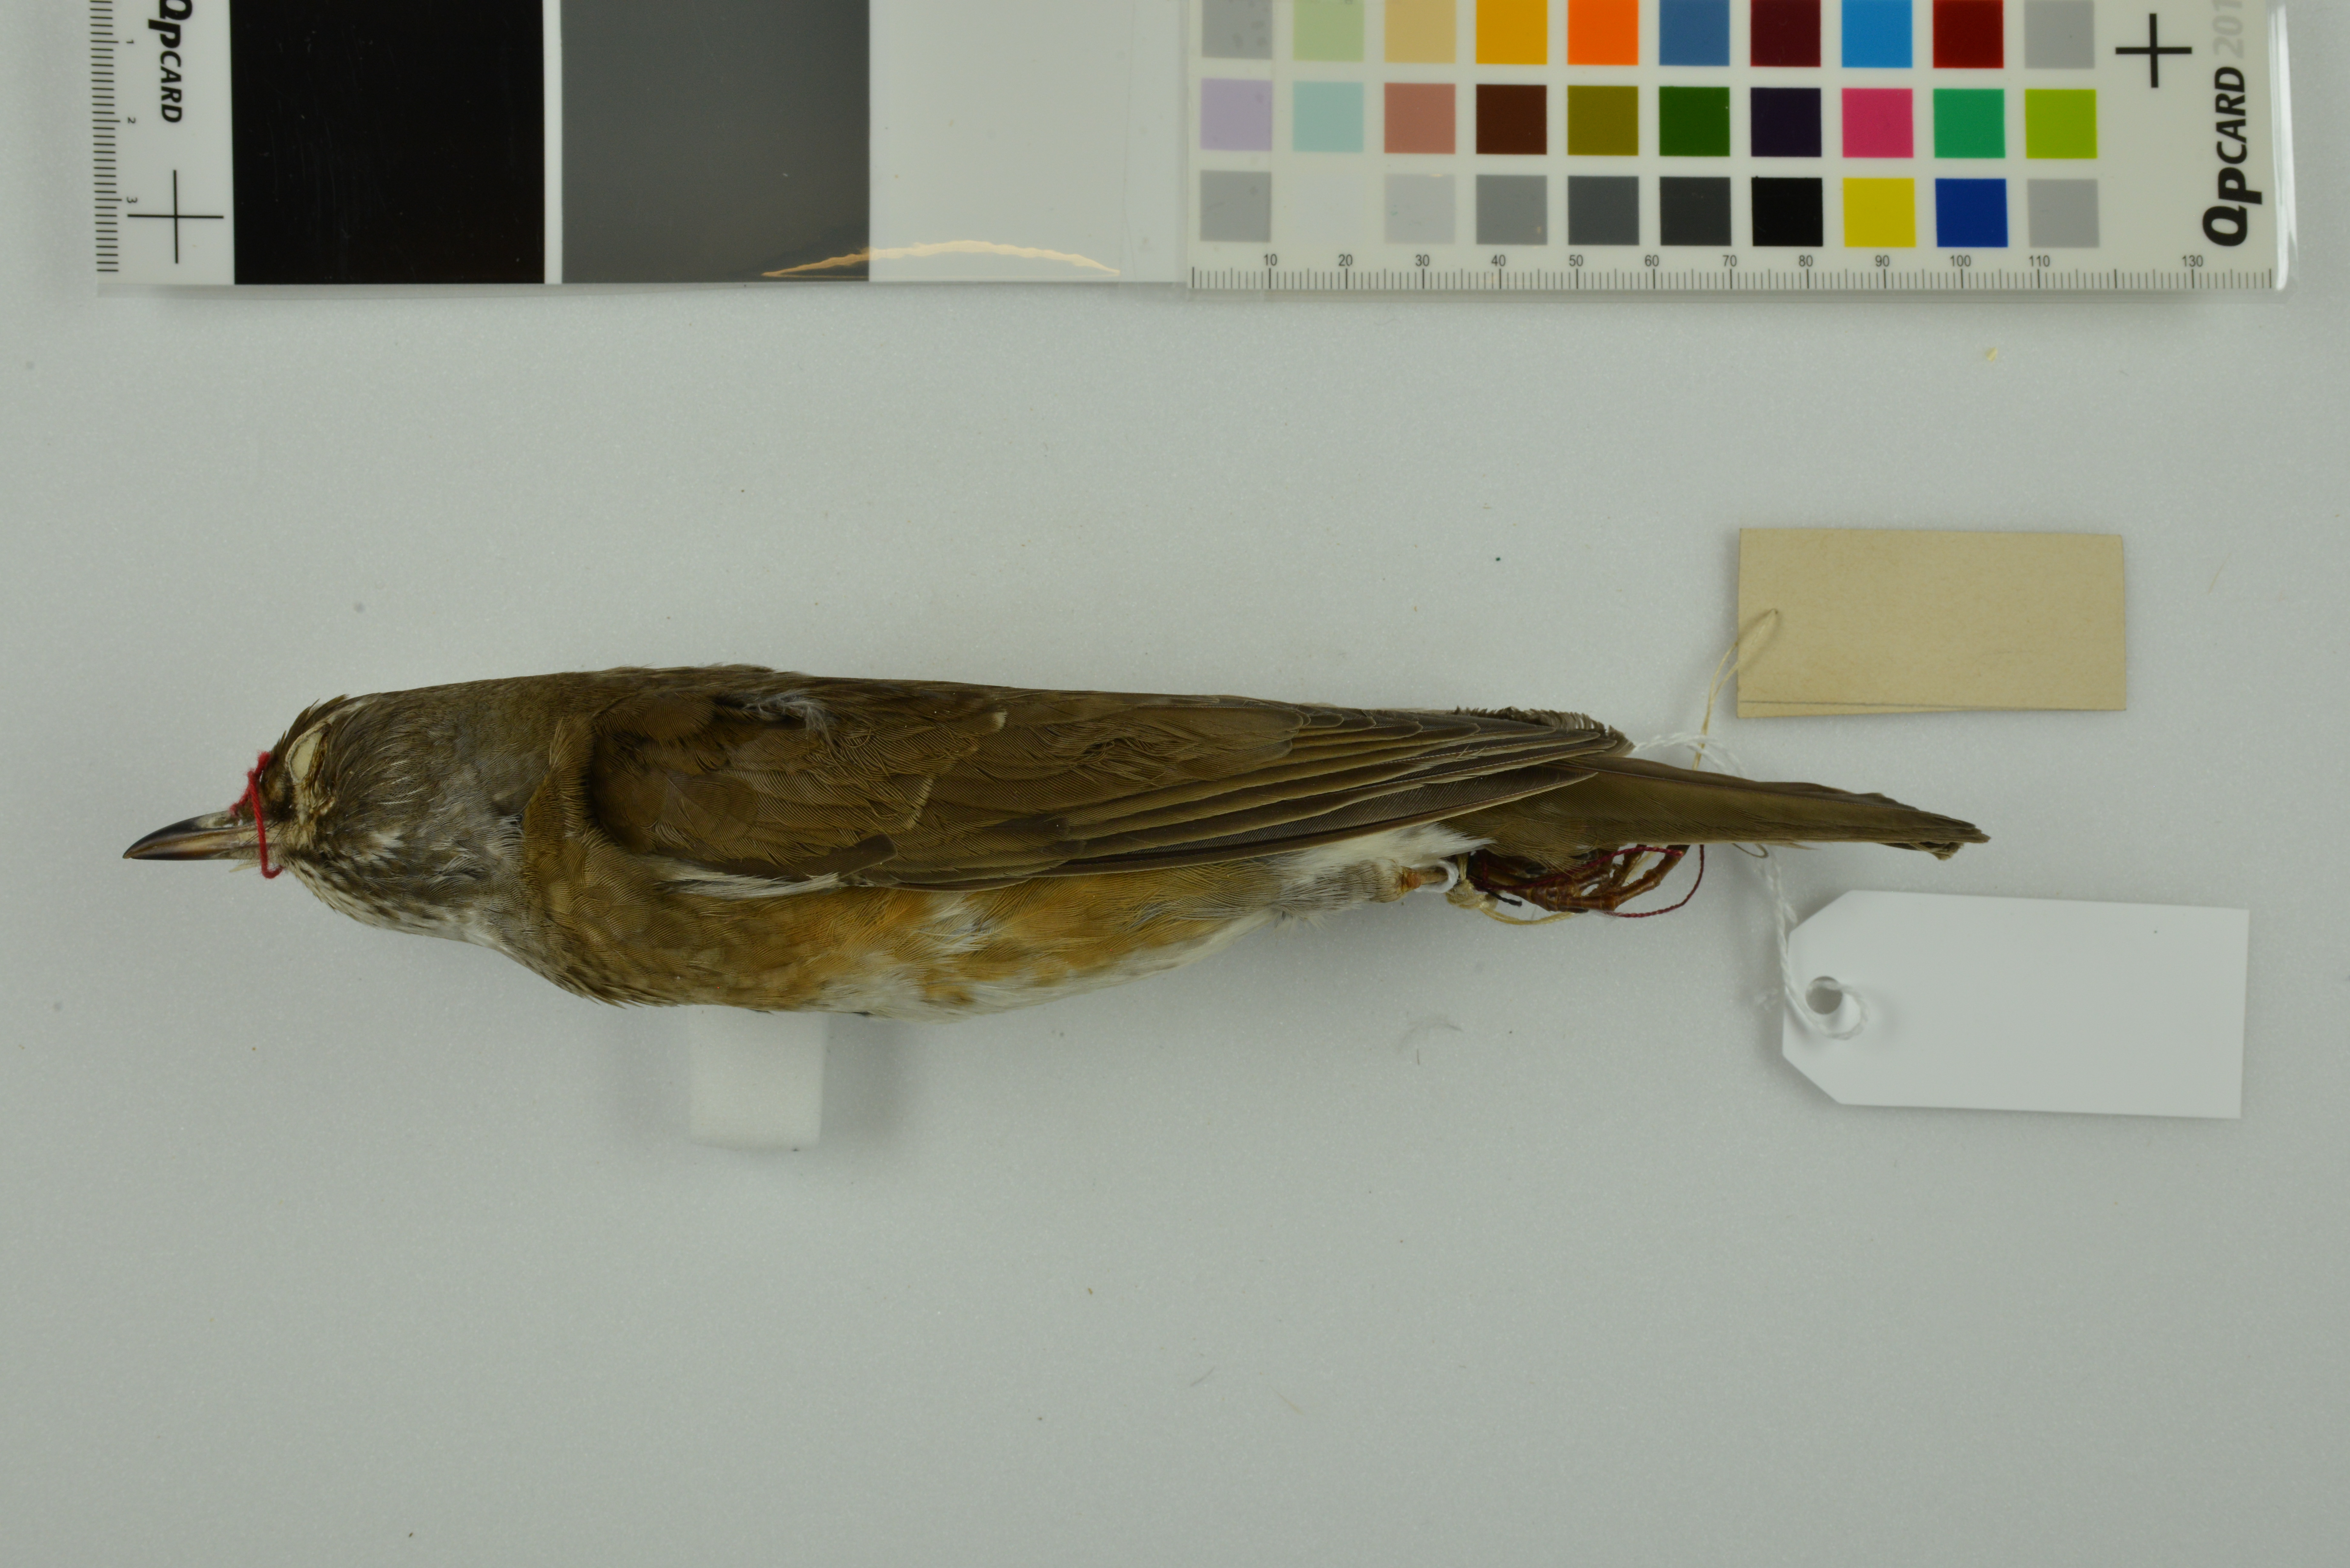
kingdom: Animalia
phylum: Chordata
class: Aves
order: Passeriformes
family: Turdidae
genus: Turdus
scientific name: Turdus obscurus
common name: Eyebrowed thrush
